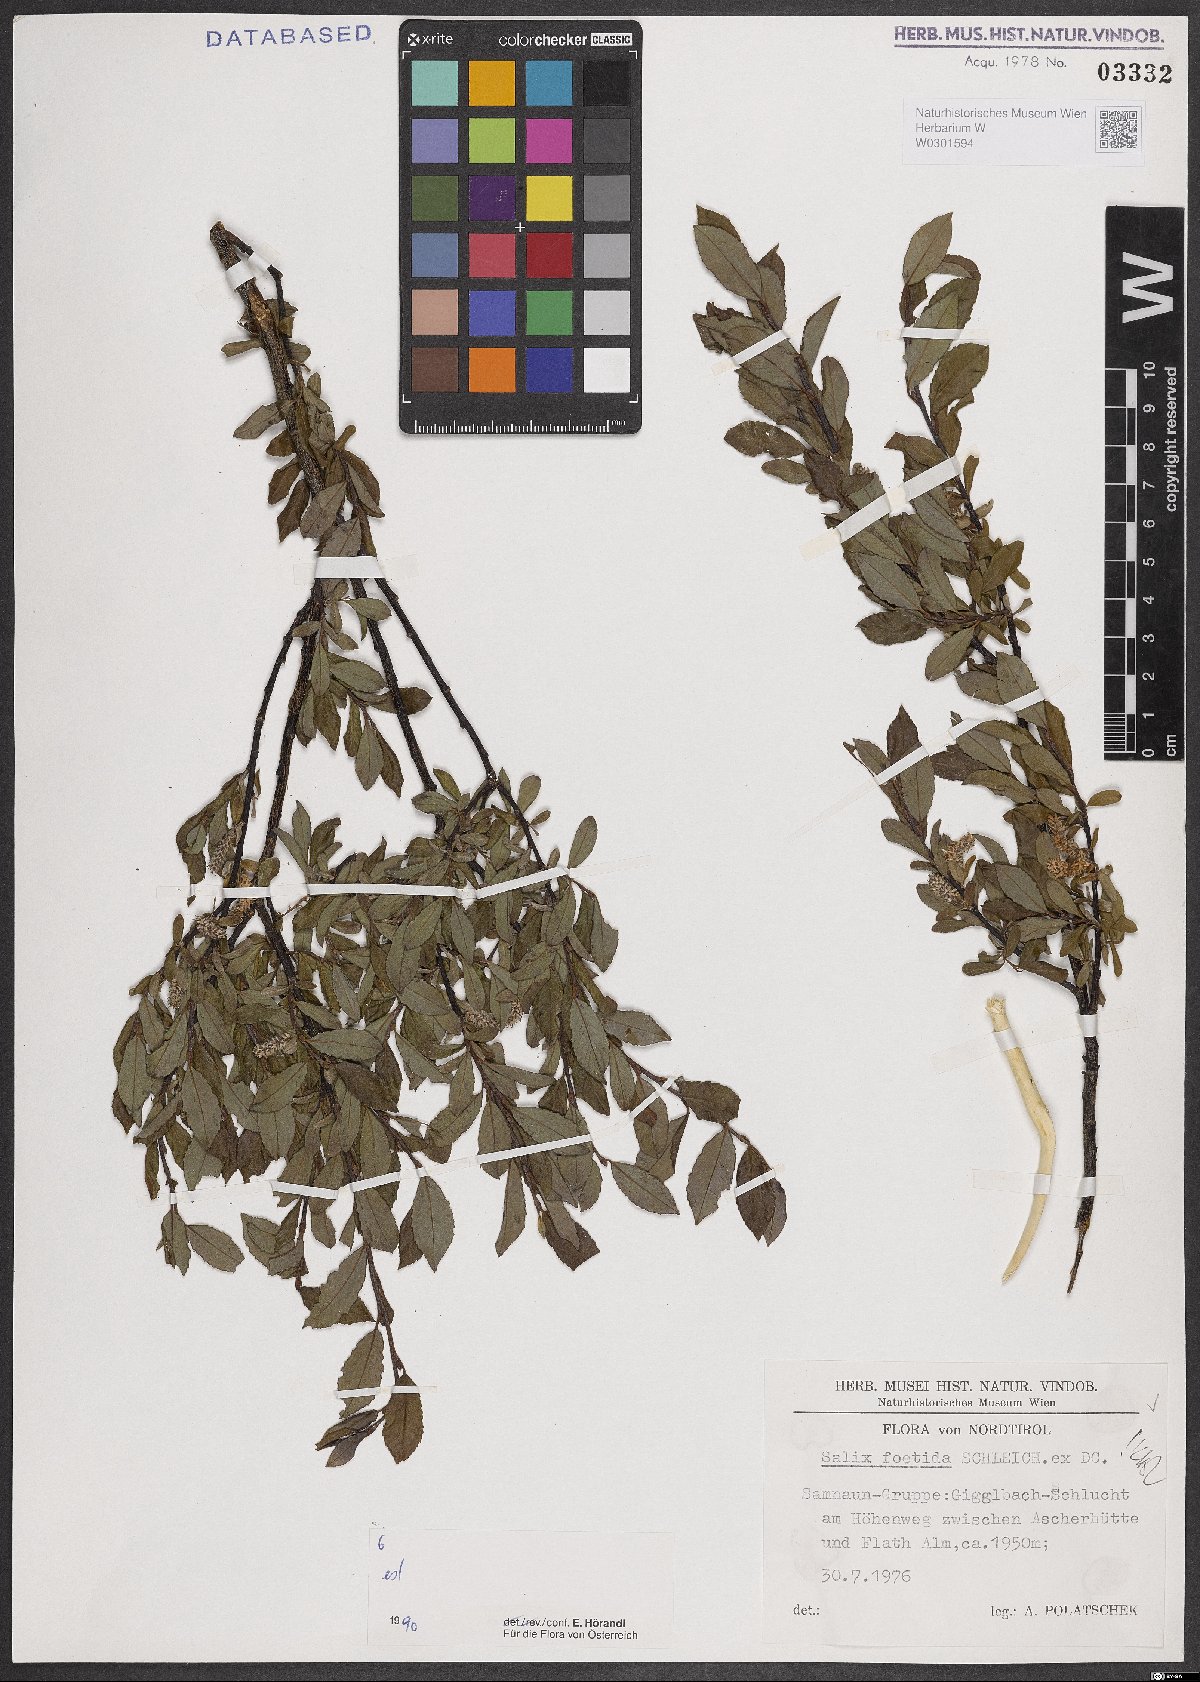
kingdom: Plantae
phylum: Tracheophyta
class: Magnoliopsida
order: Malpighiales
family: Salicaceae
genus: Salix
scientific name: Salix foetida
